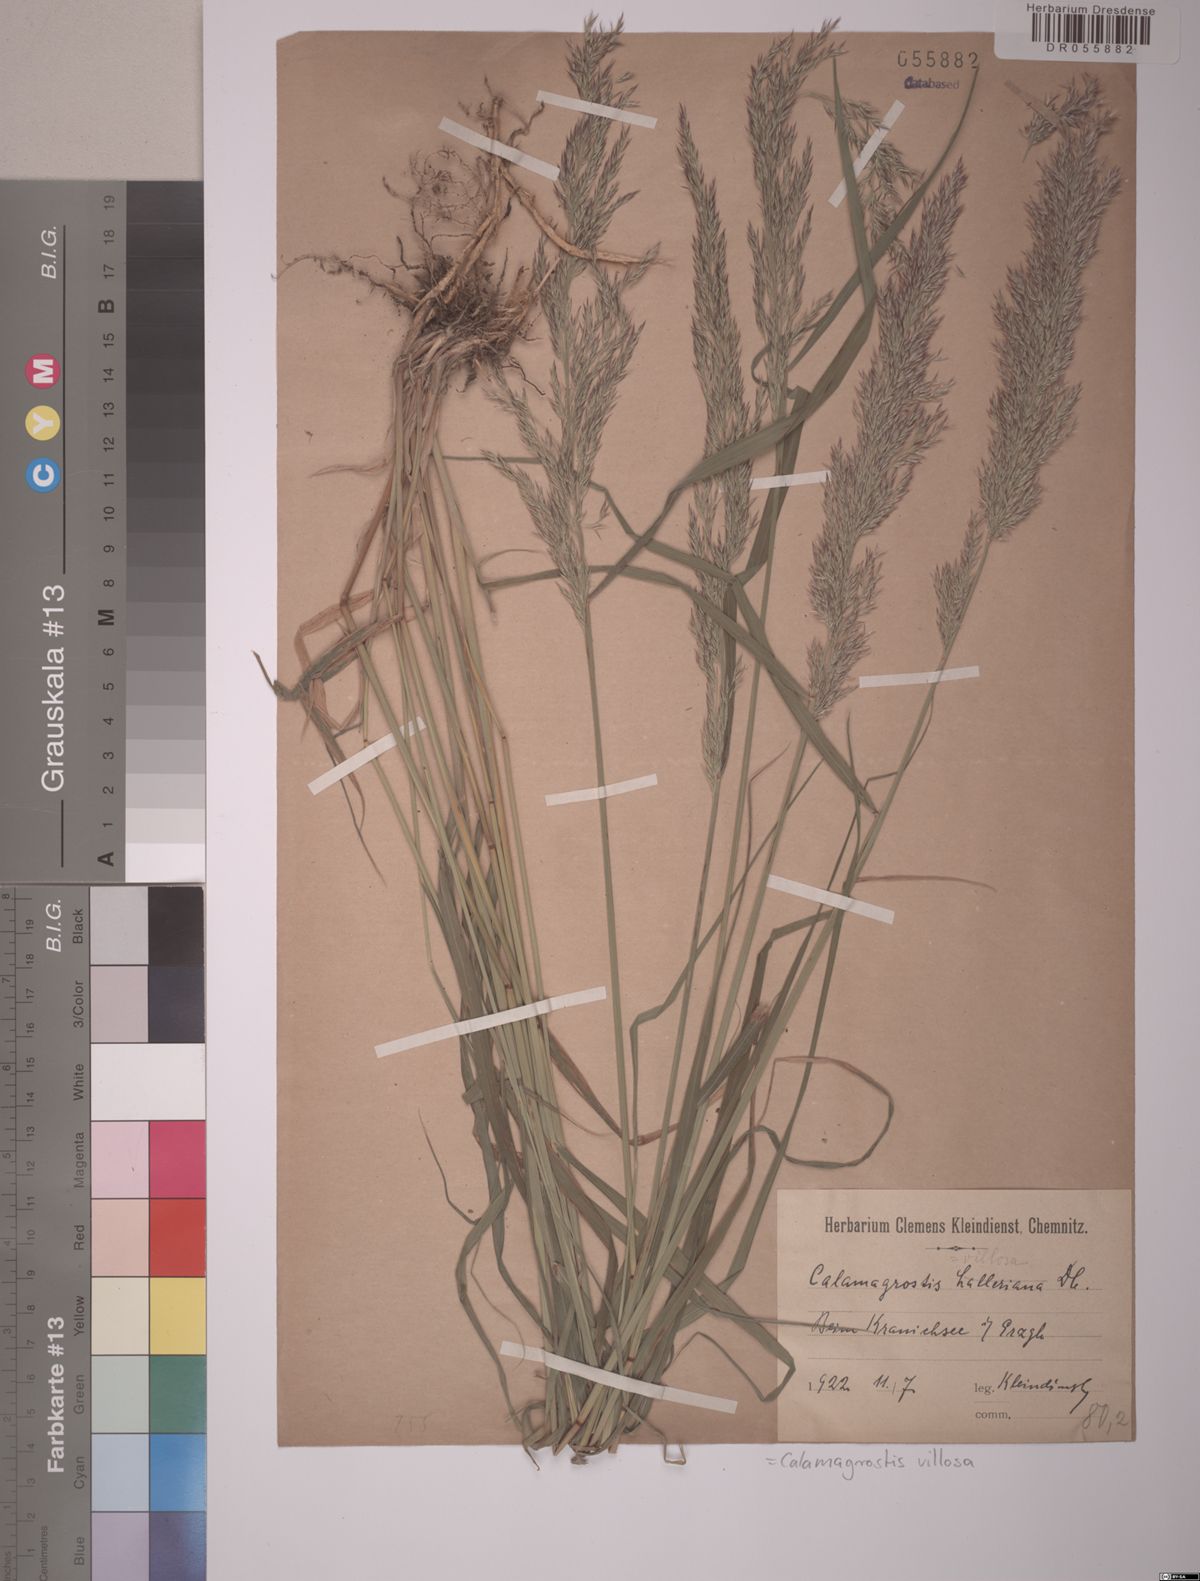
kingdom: Plantae
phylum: Tracheophyta
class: Liliopsida
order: Poales
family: Poaceae
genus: Calamagrostis
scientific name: Calamagrostis villosa
